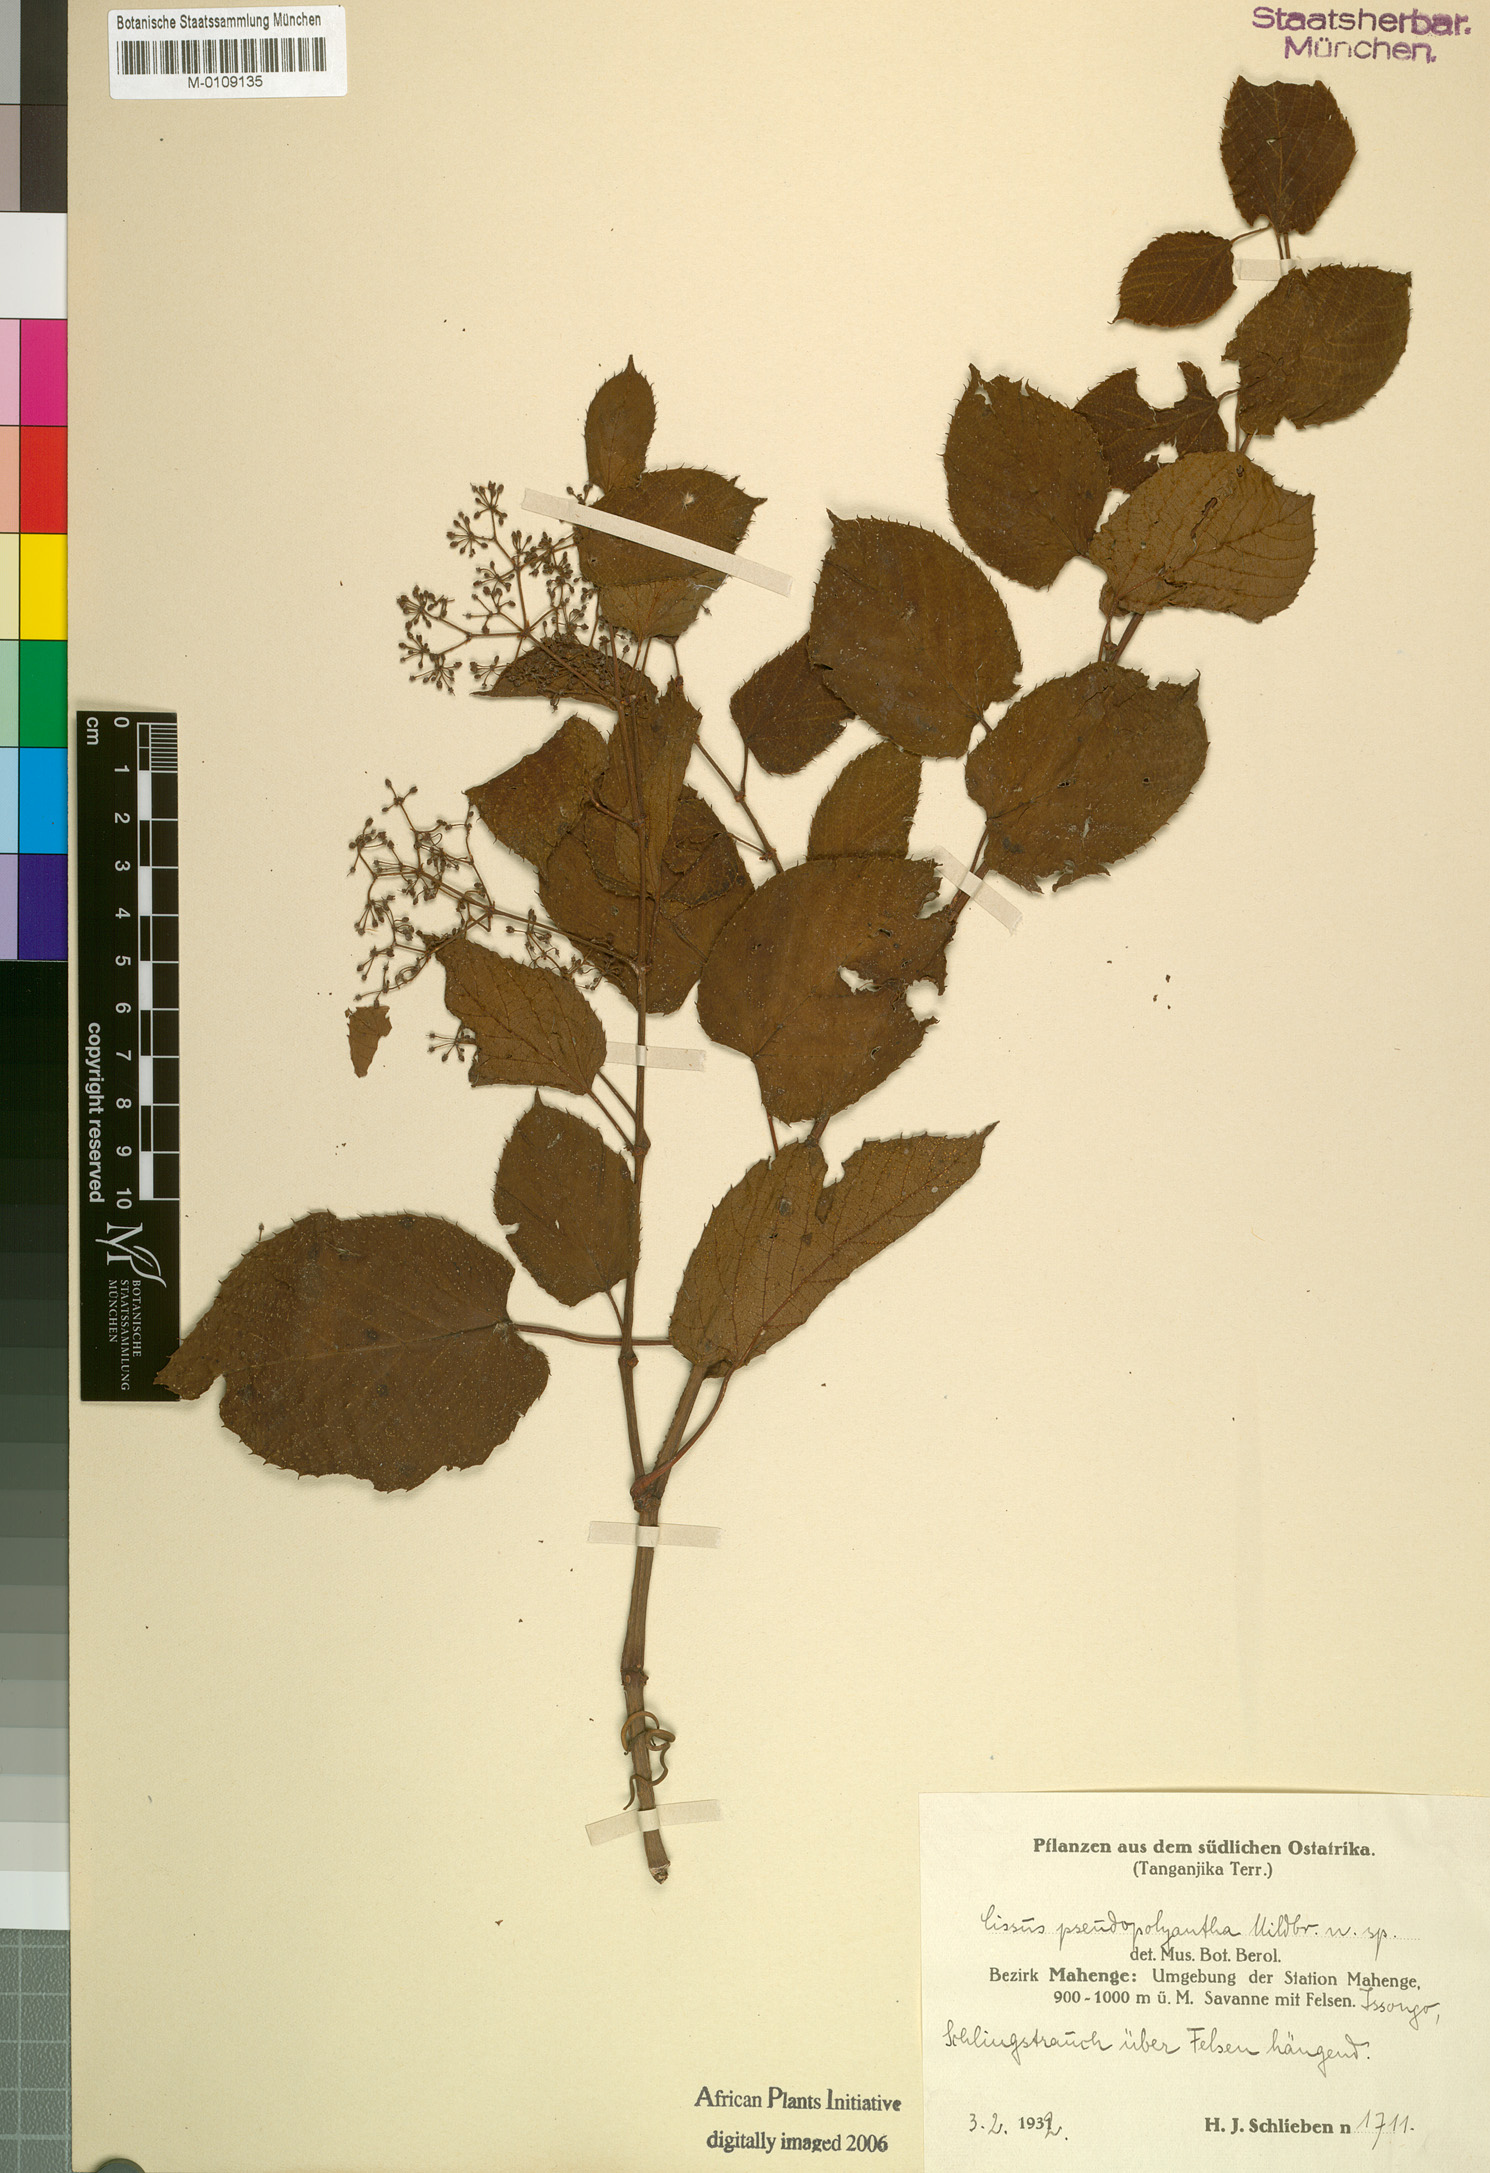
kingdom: Plantae
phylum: Tracheophyta
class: Magnoliopsida
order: Vitales
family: Vitaceae
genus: Cissus
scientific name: Cissus pseudopolyantha
